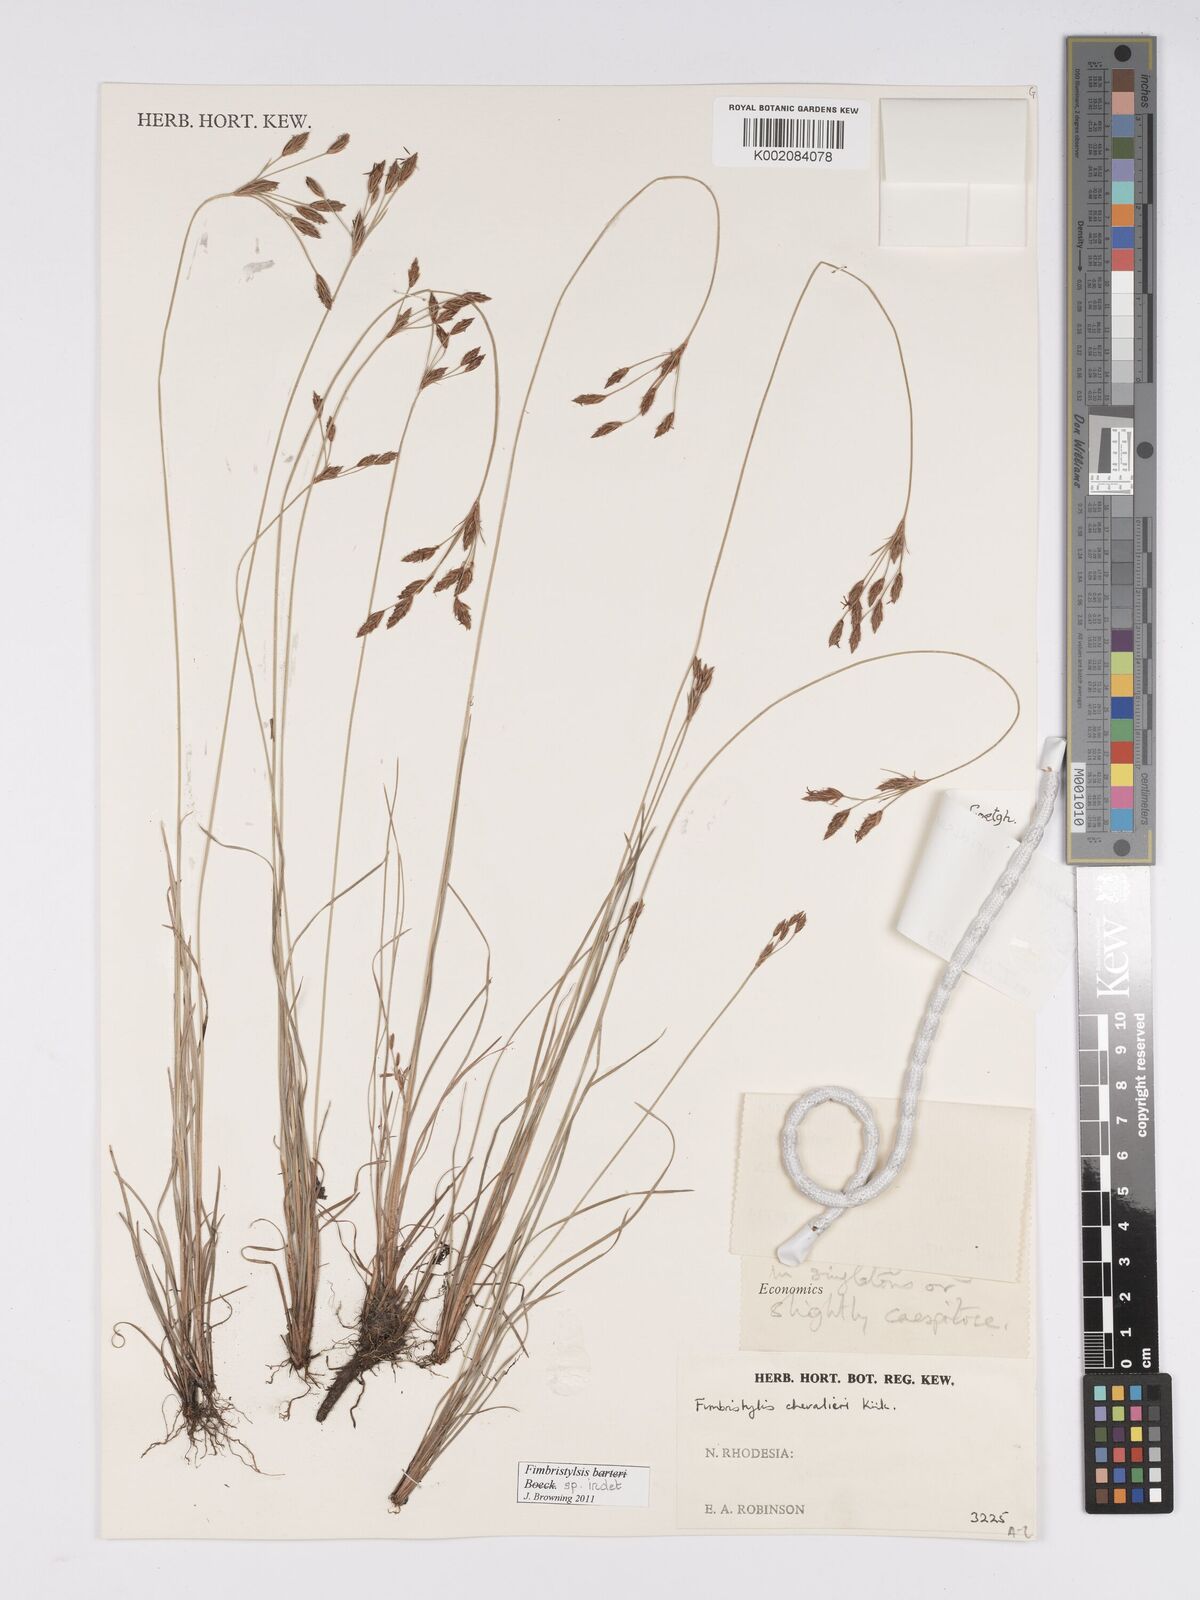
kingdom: Plantae
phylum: Tracheophyta
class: Liliopsida
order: Poales
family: Cyperaceae
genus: Bulbostylis
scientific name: Bulbostylis viridecarinata
